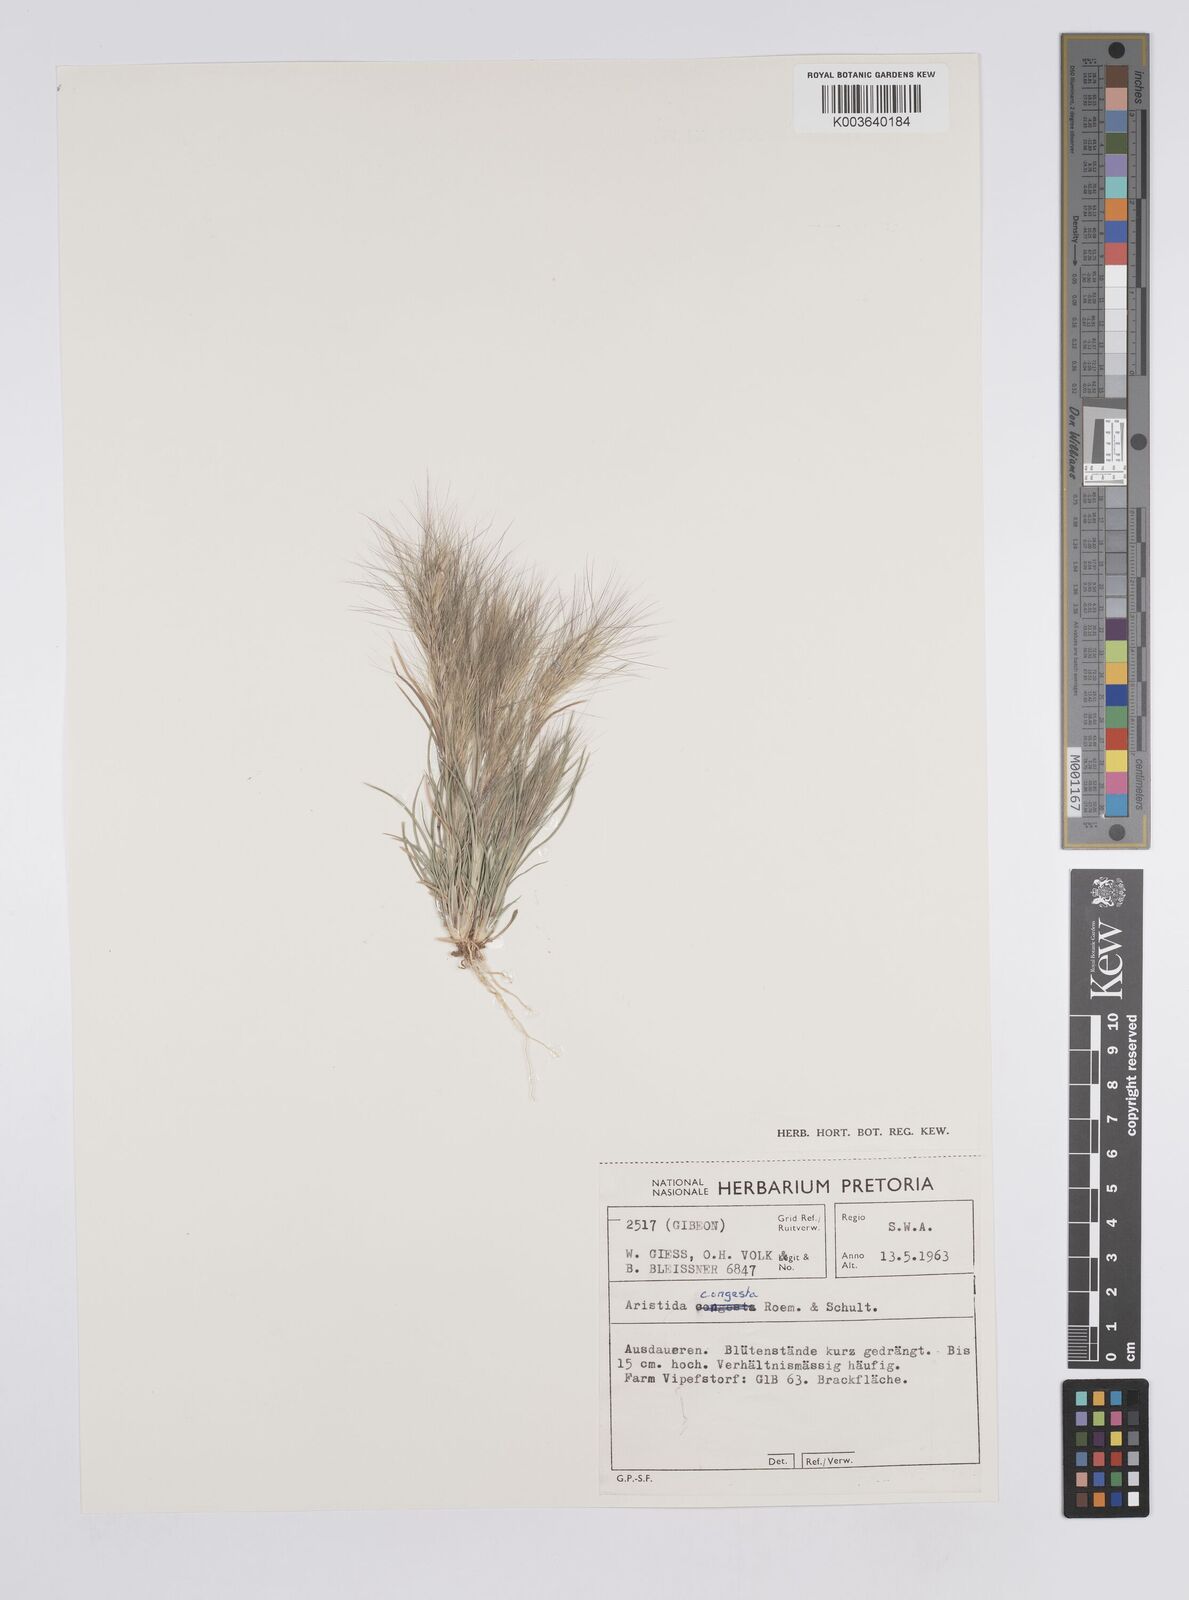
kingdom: Plantae
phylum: Tracheophyta
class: Liliopsida
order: Poales
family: Poaceae
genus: Aristida
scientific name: Aristida congesta
